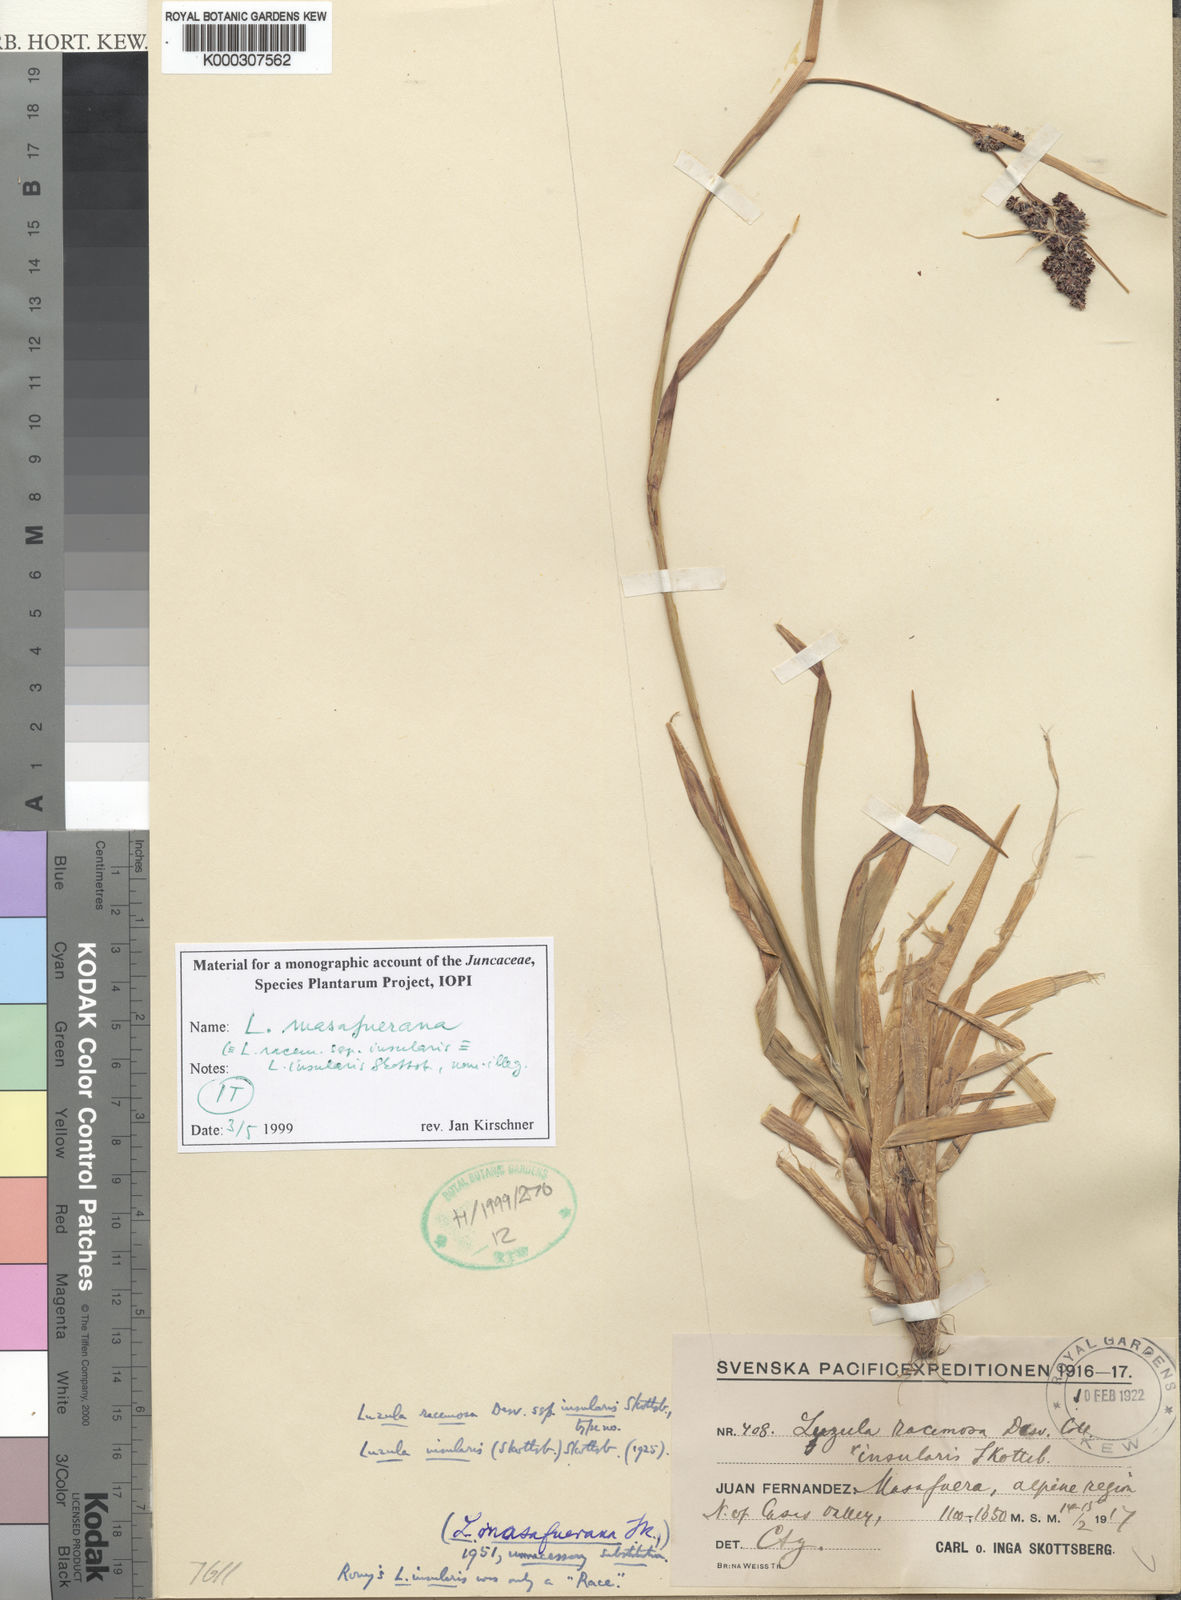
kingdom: Plantae
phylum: Tracheophyta
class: Liliopsida
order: Poales
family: Juncaceae
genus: Luzula
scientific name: Luzula racemosa
